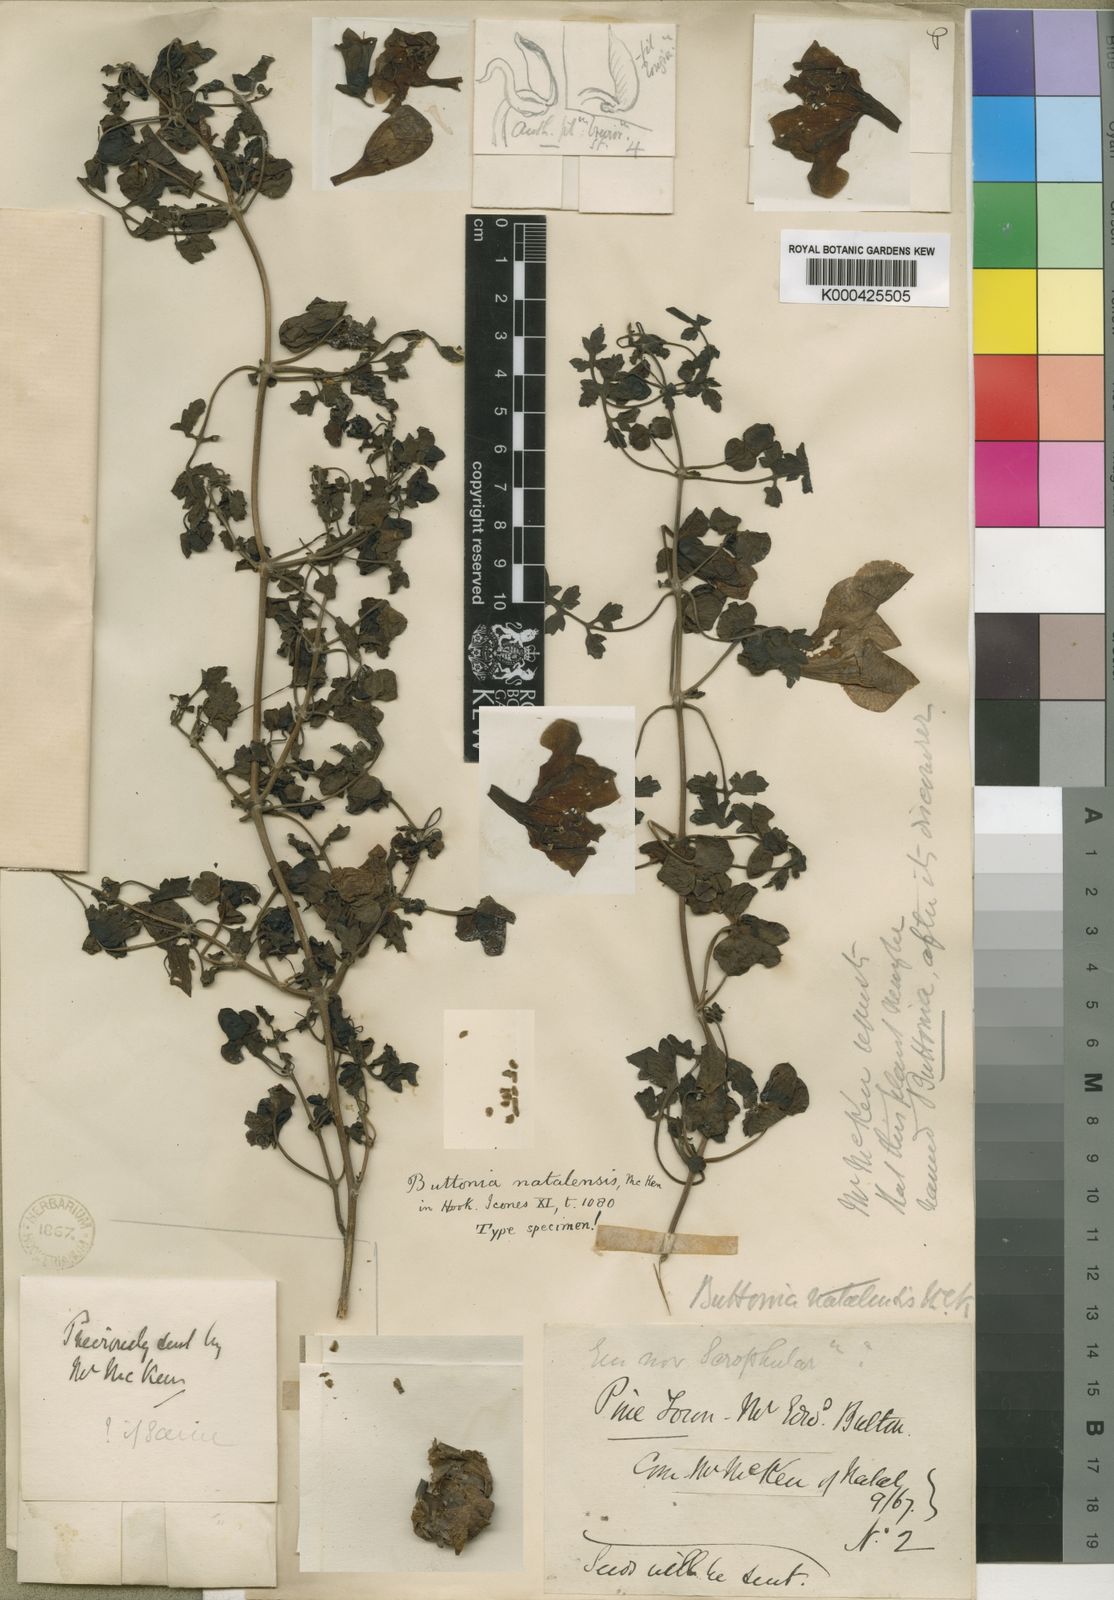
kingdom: Plantae
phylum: Tracheophyta
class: Magnoliopsida
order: Lamiales
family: Orobanchaceae
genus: Buttonia
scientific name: Buttonia natalensis
